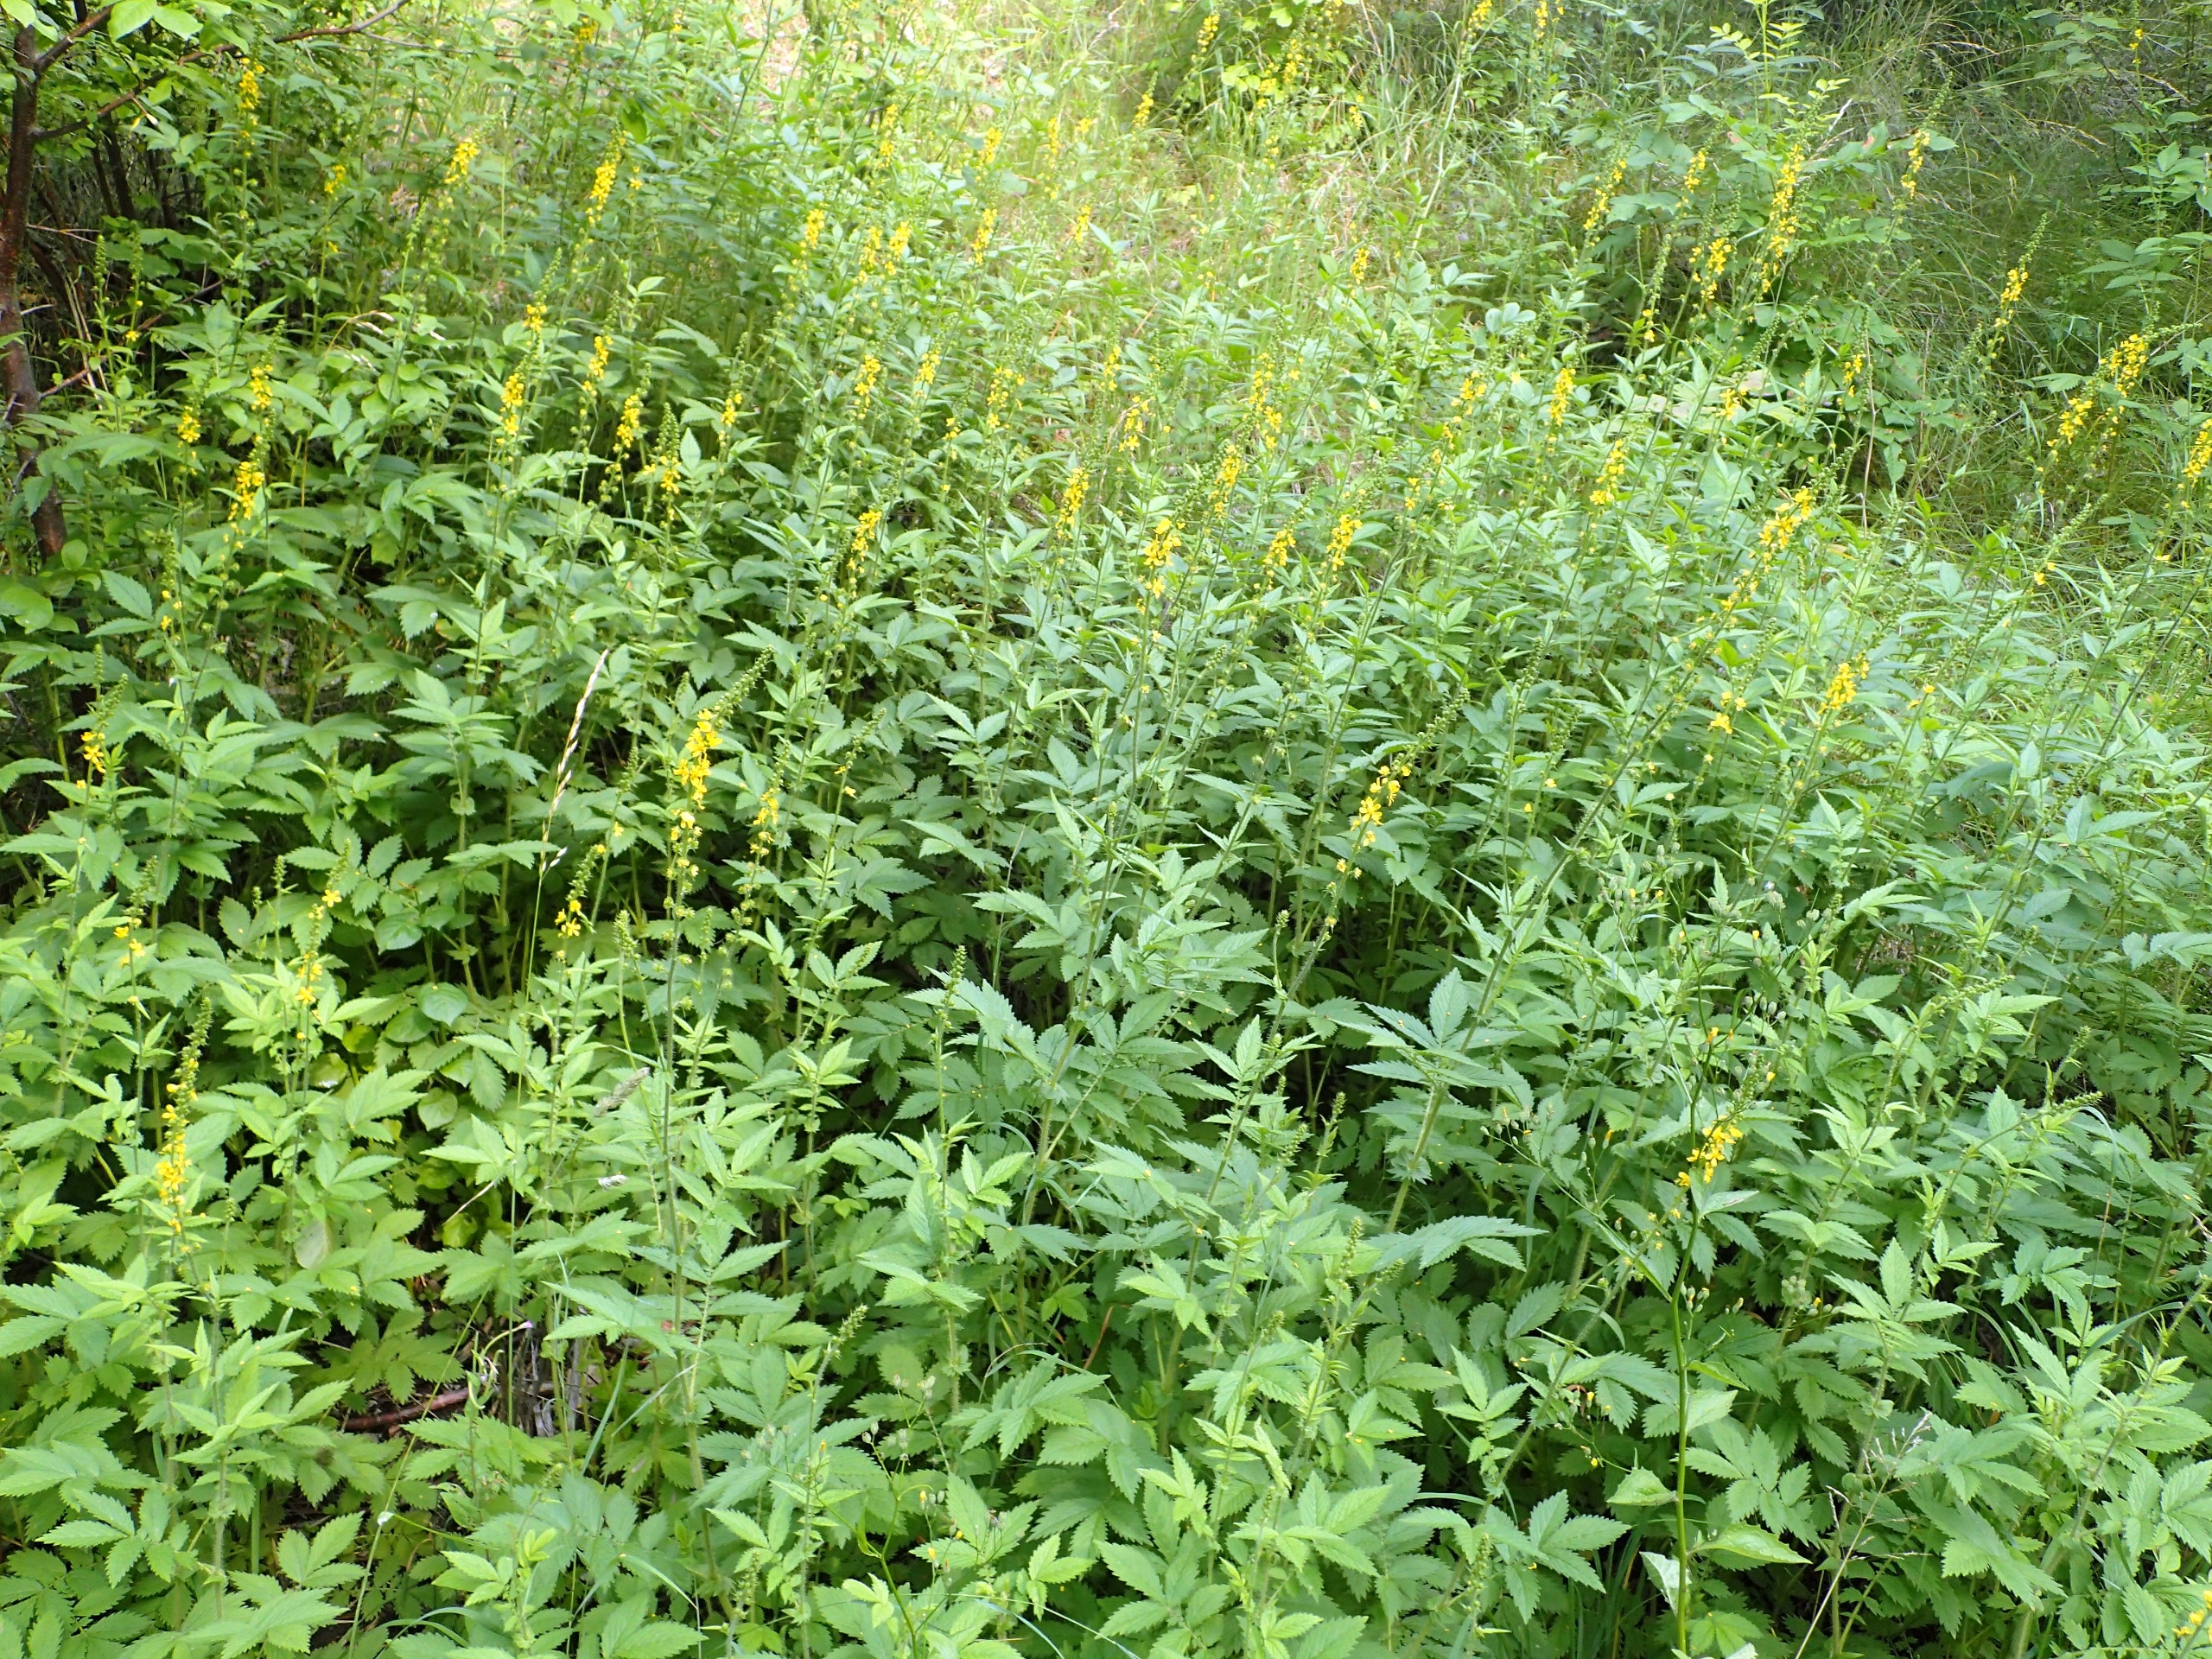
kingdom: Plantae
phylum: Tracheophyta
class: Magnoliopsida
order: Rosales
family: Rosaceae
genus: Agrimonia
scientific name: Agrimonia procera
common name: Vellugtende agermåne
